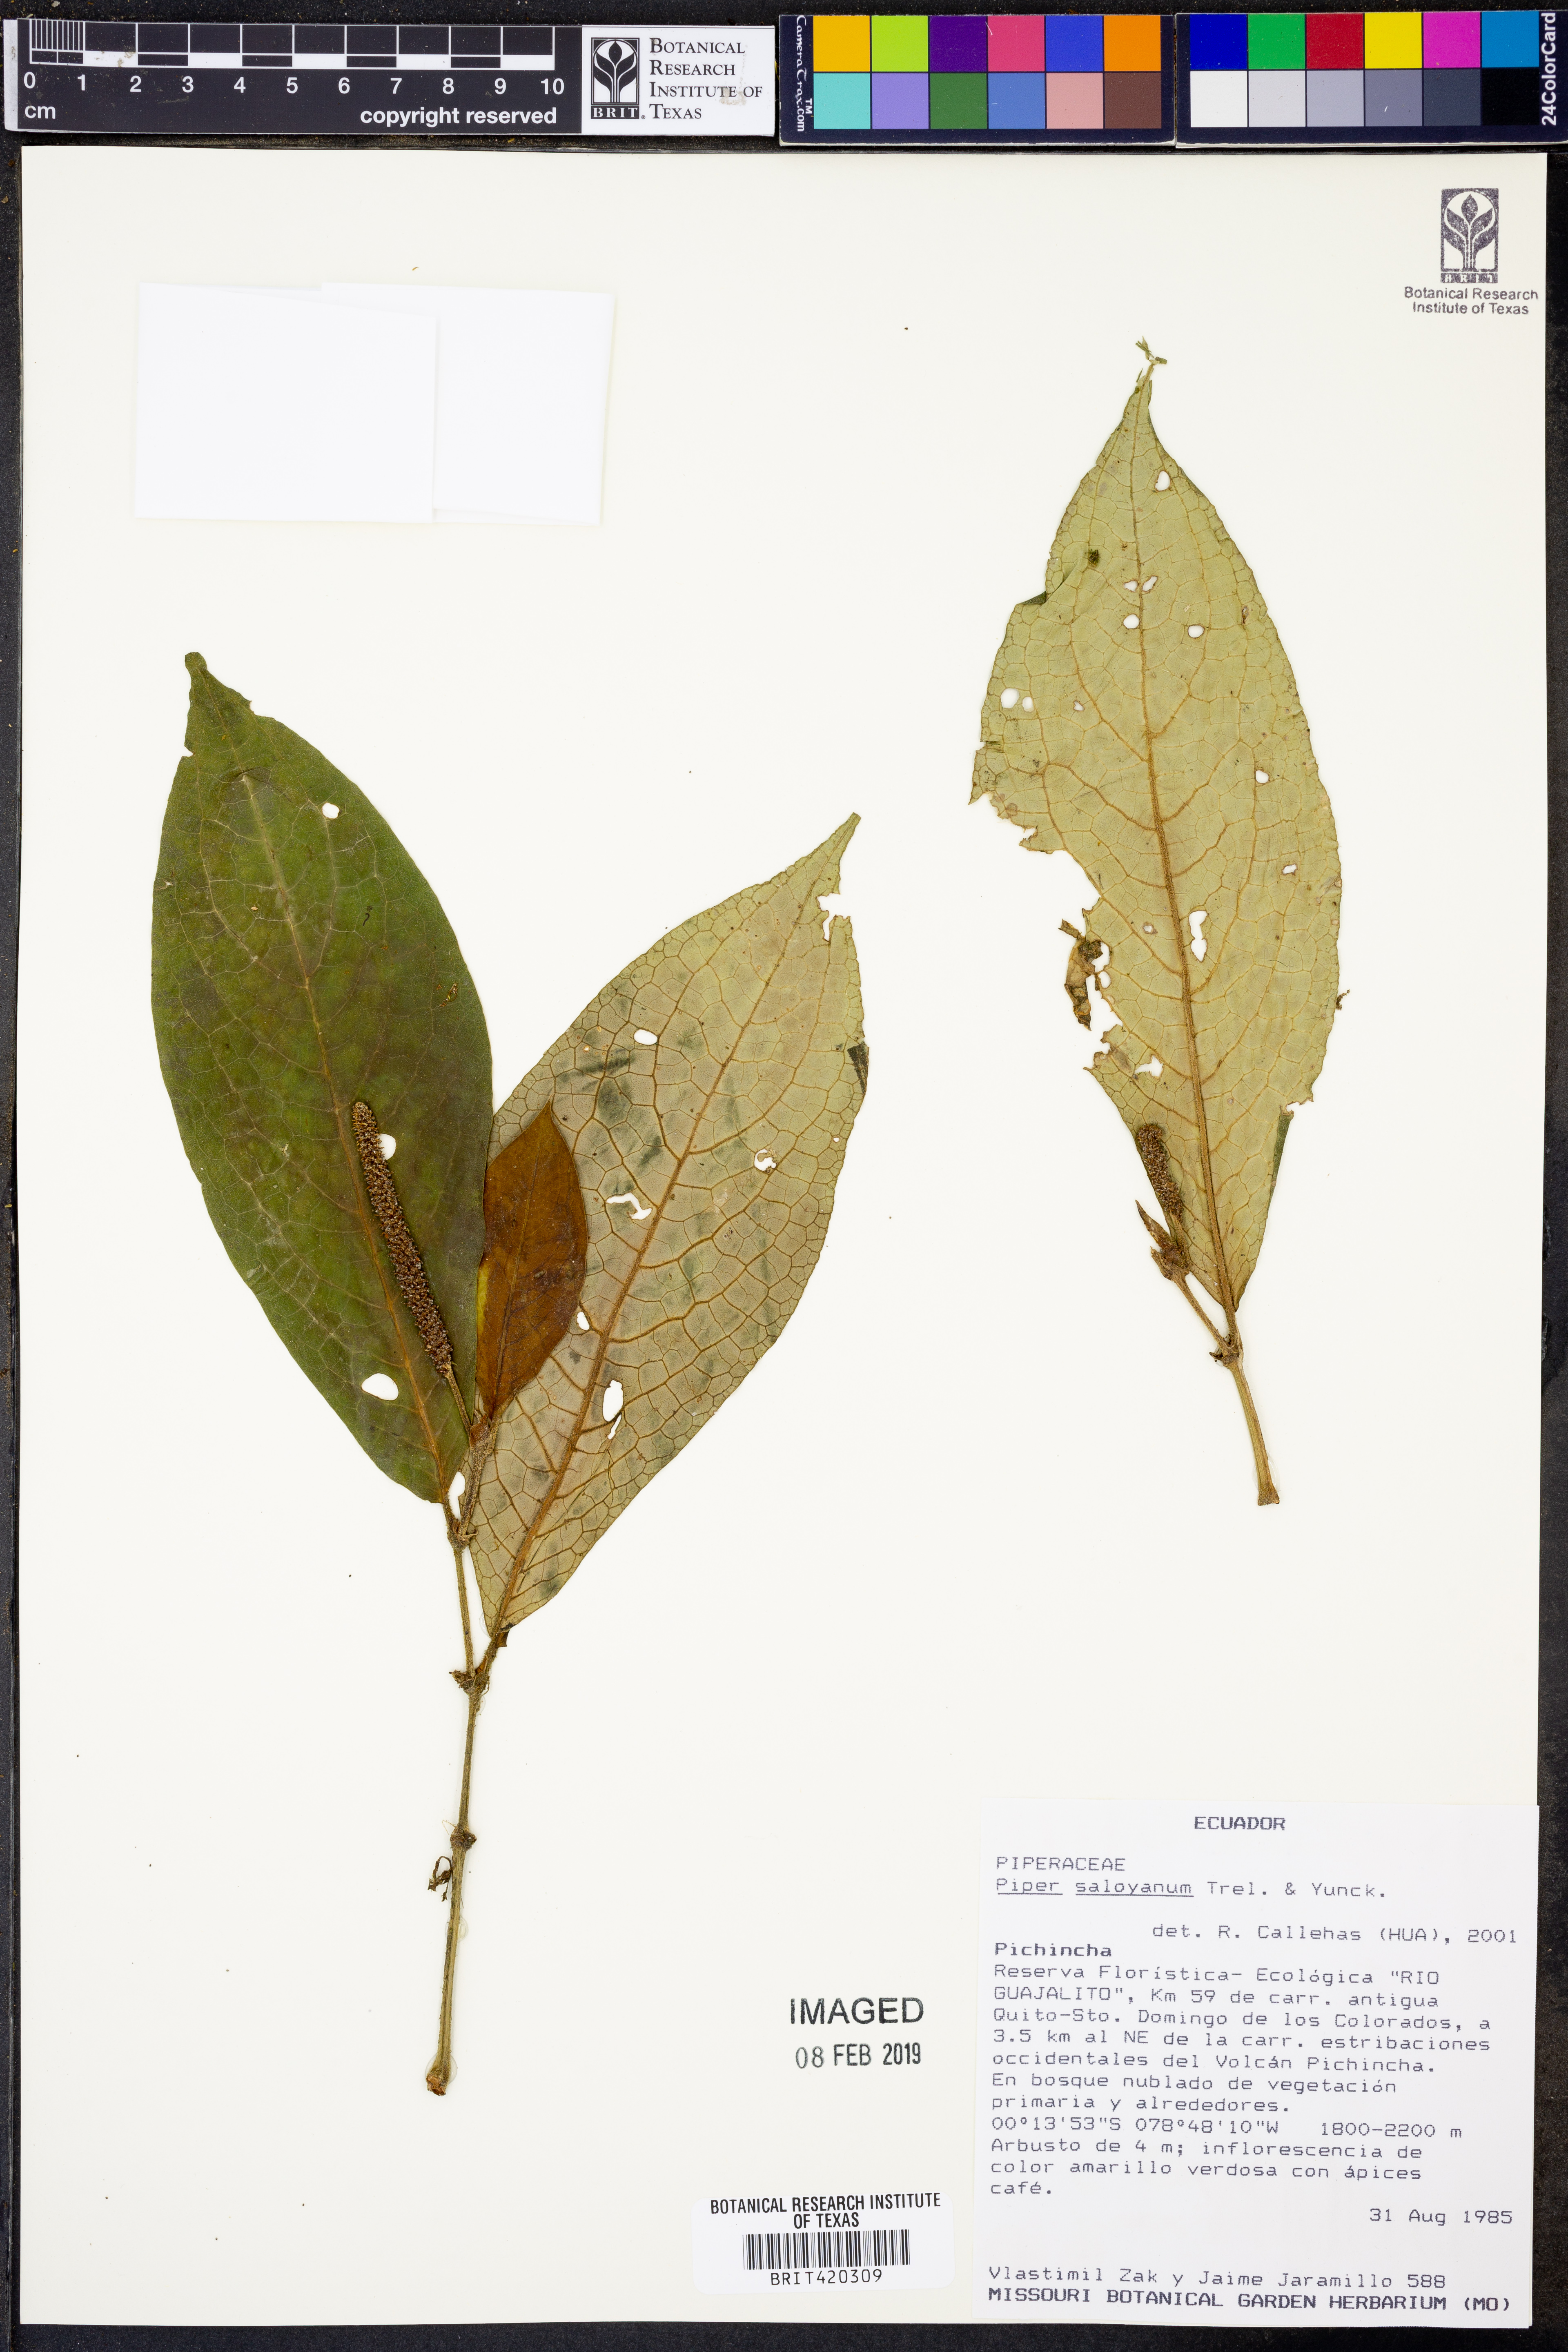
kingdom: Plantae
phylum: Tracheophyta
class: Magnoliopsida
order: Piperales
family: Piperaceae
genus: Piper
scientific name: Piper saloyanum
